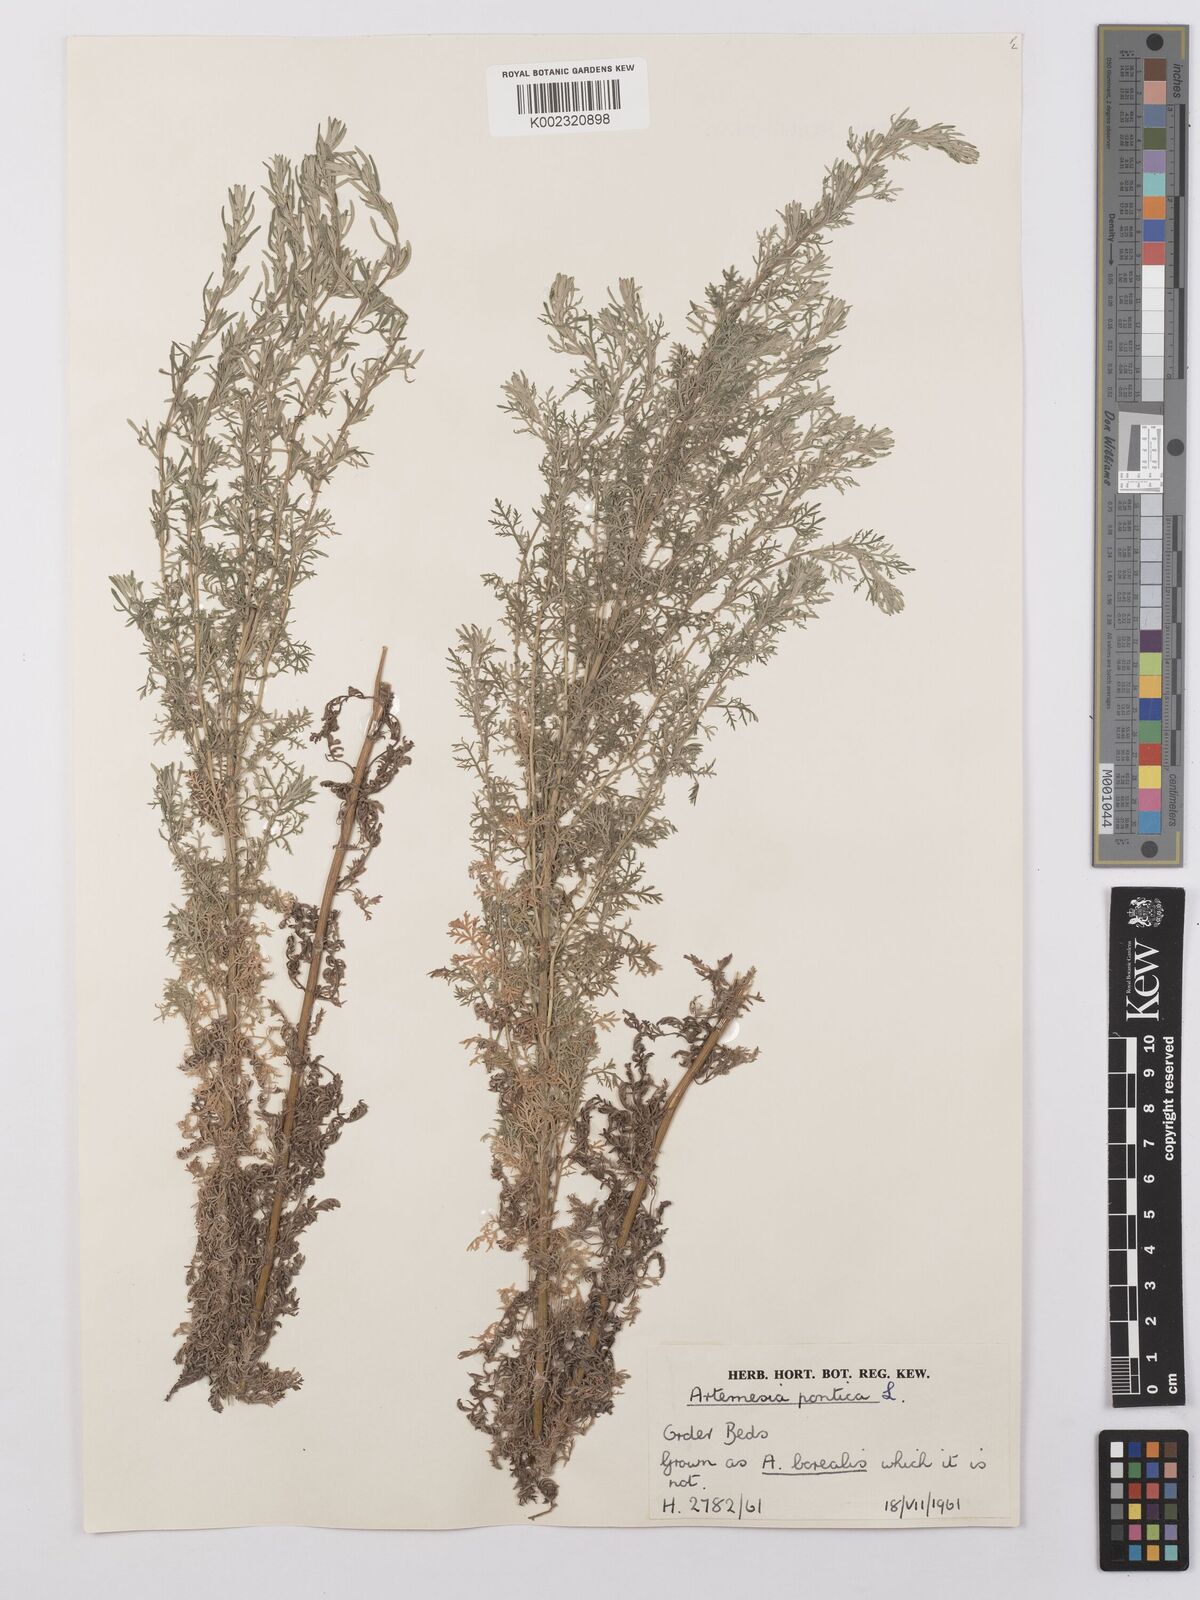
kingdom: Plantae
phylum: Tracheophyta
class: Magnoliopsida
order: Asterales
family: Asteraceae
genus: Artemisia
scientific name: Artemisia pontica
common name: Roman wormwood
